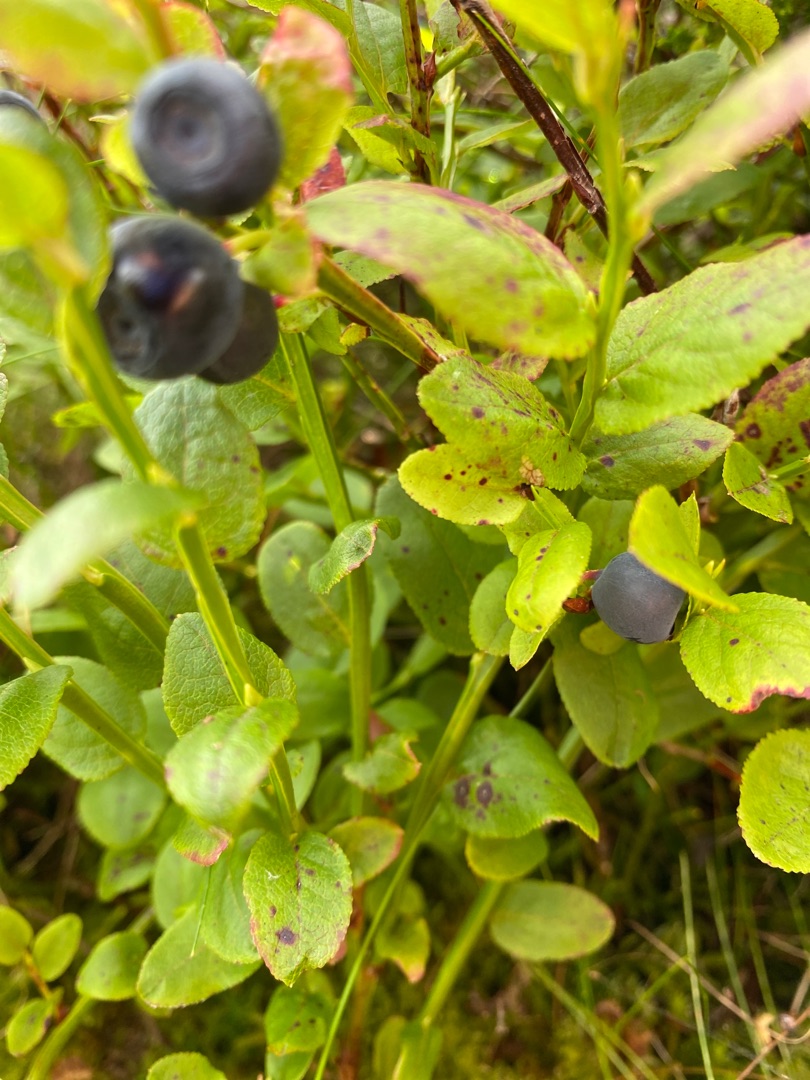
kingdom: Plantae
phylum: Tracheophyta
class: Magnoliopsida
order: Ericales
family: Ericaceae
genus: Vaccinium
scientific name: Vaccinium myrtillus
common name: Blåbær
